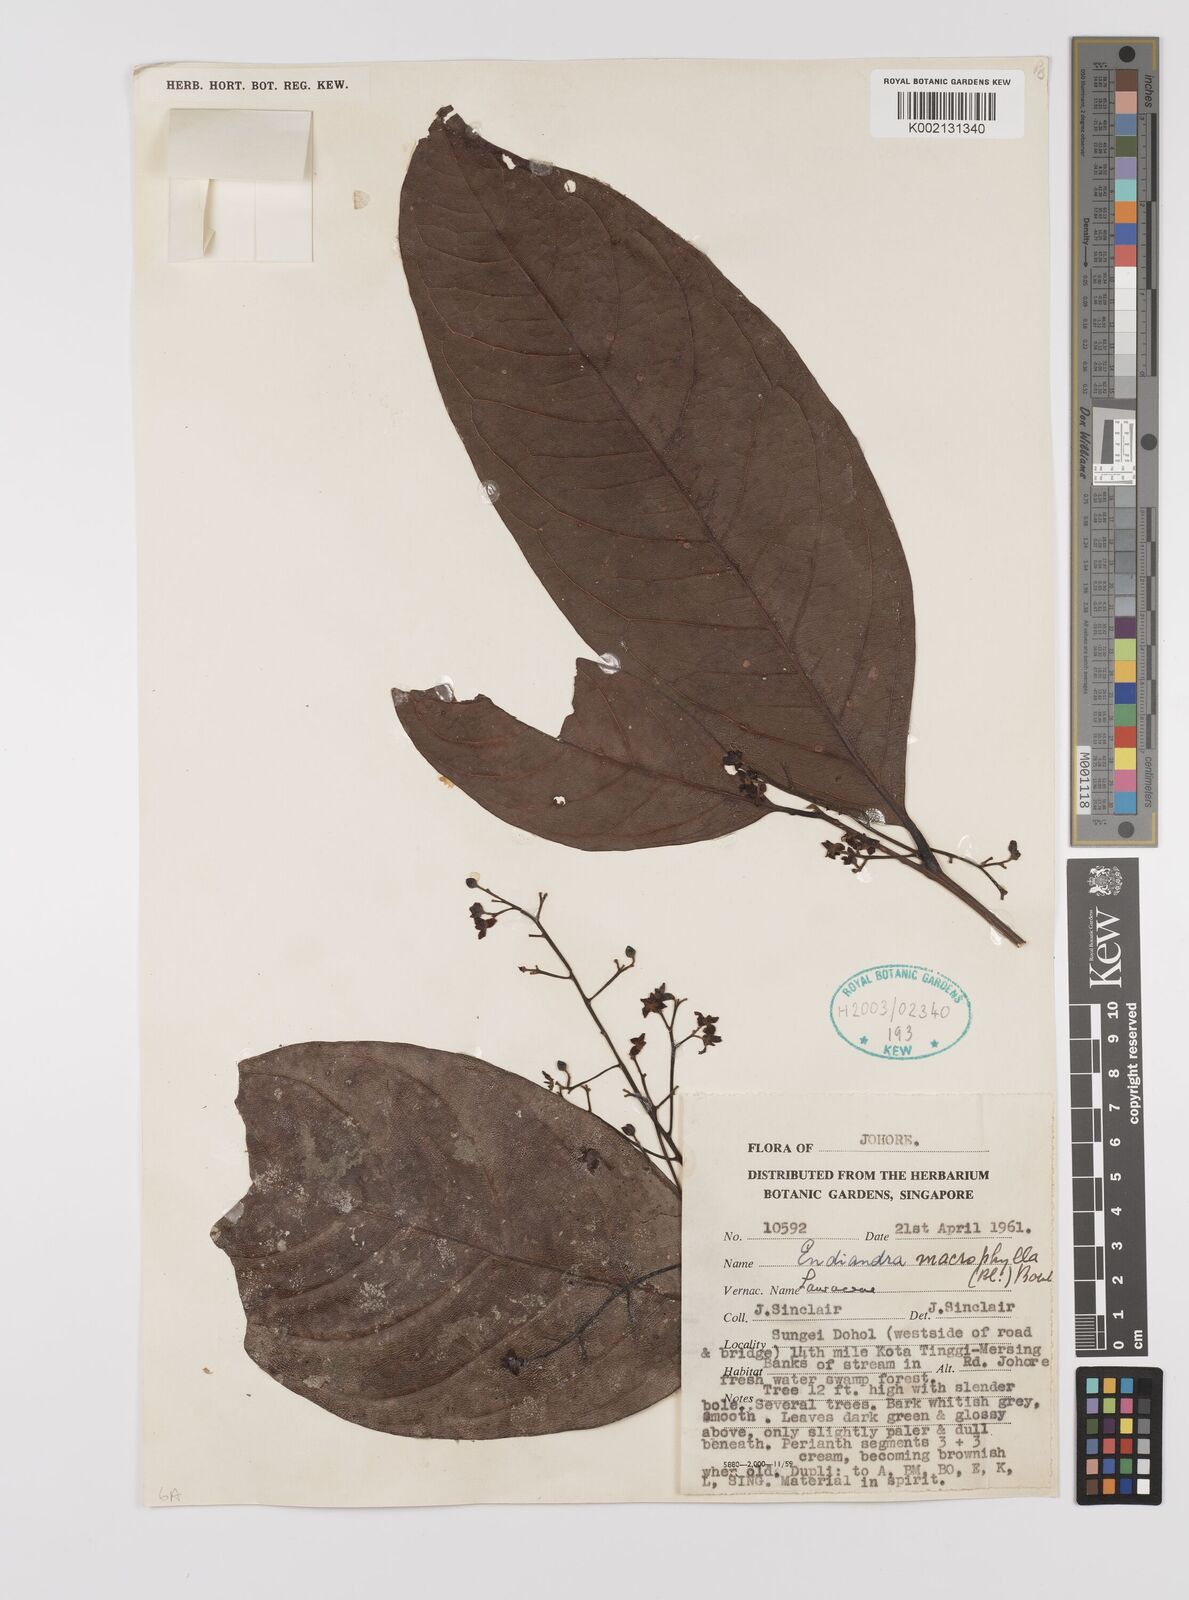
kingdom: Plantae
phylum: Tracheophyta
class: Magnoliopsida
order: Laurales
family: Lauraceae
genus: Endiandra
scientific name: Endiandra macrophylla
